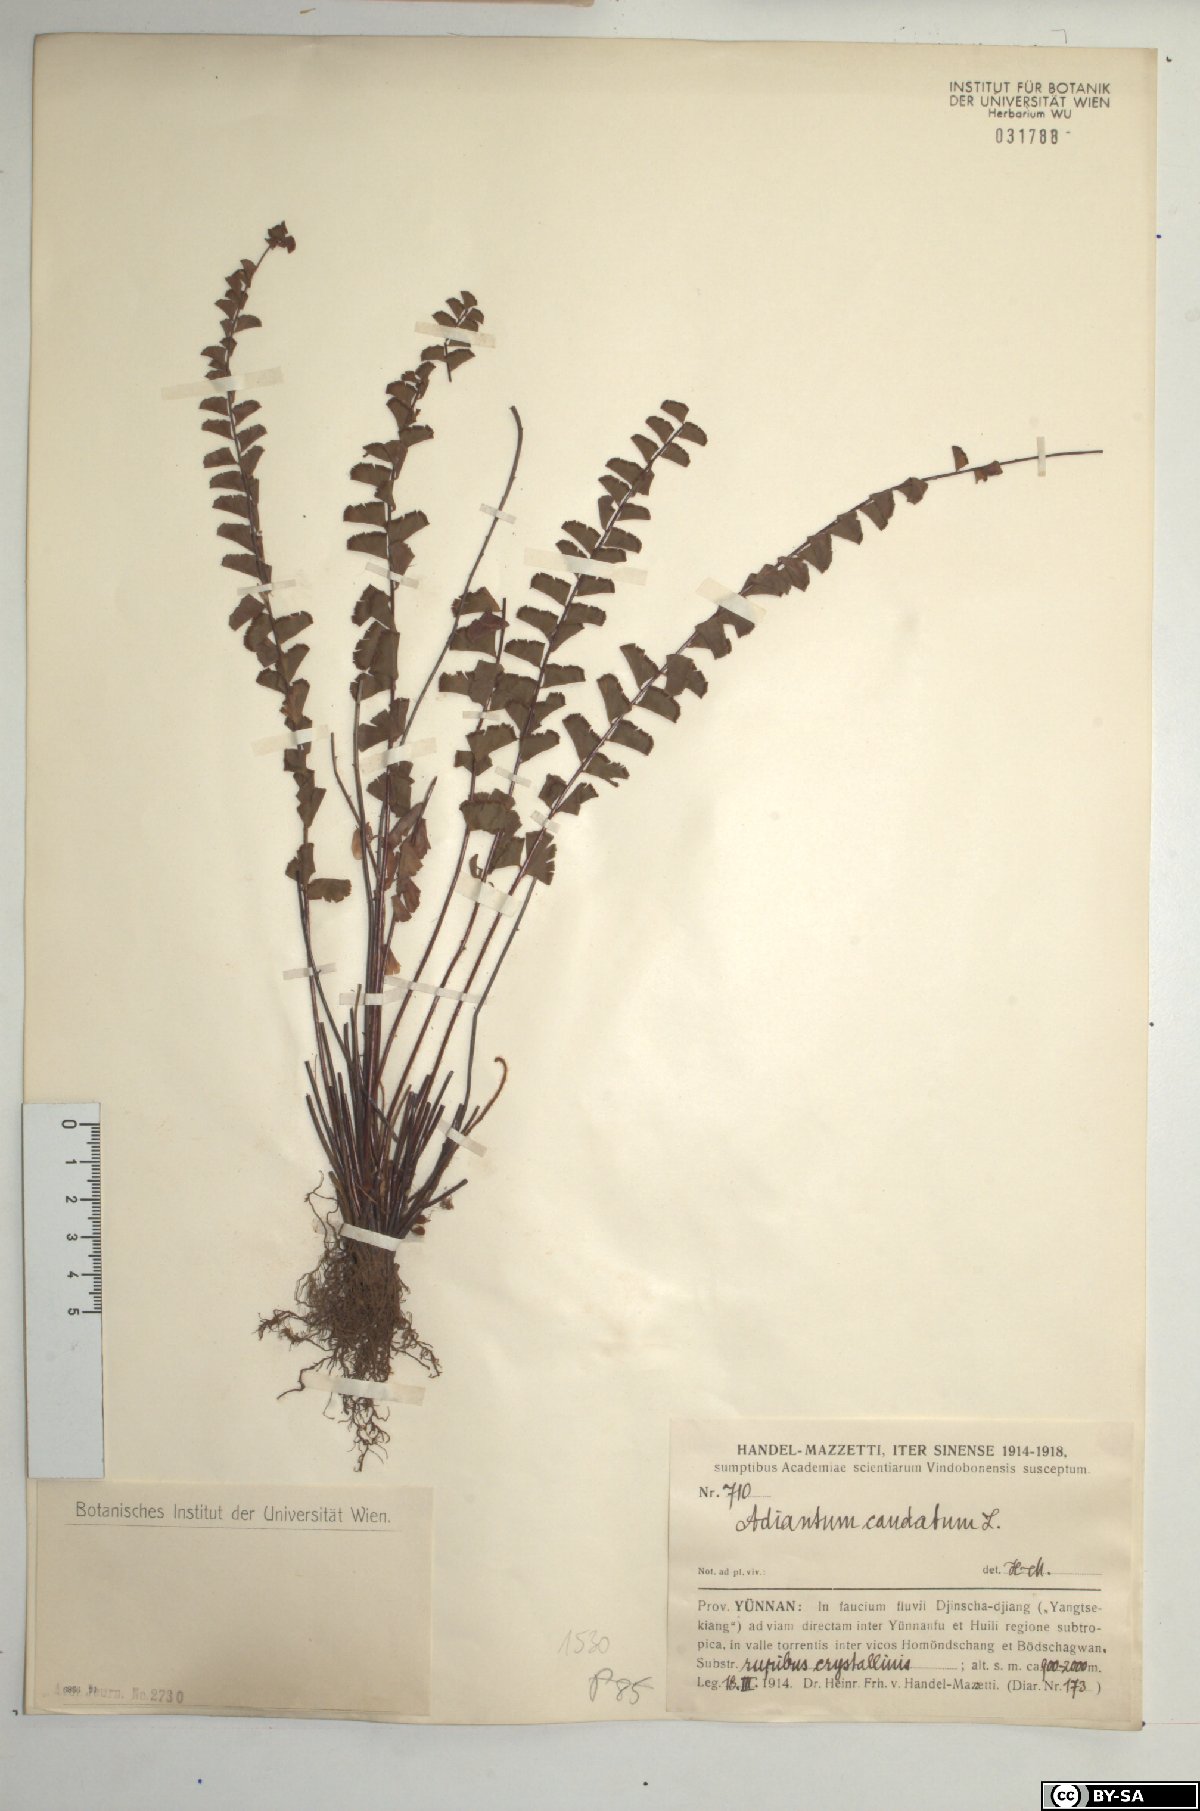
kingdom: Plantae
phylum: Tracheophyta
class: Polypodiopsida
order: Polypodiales
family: Pteridaceae
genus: Adiantum
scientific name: Adiantum caudatum
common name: Tailed maidenhair
